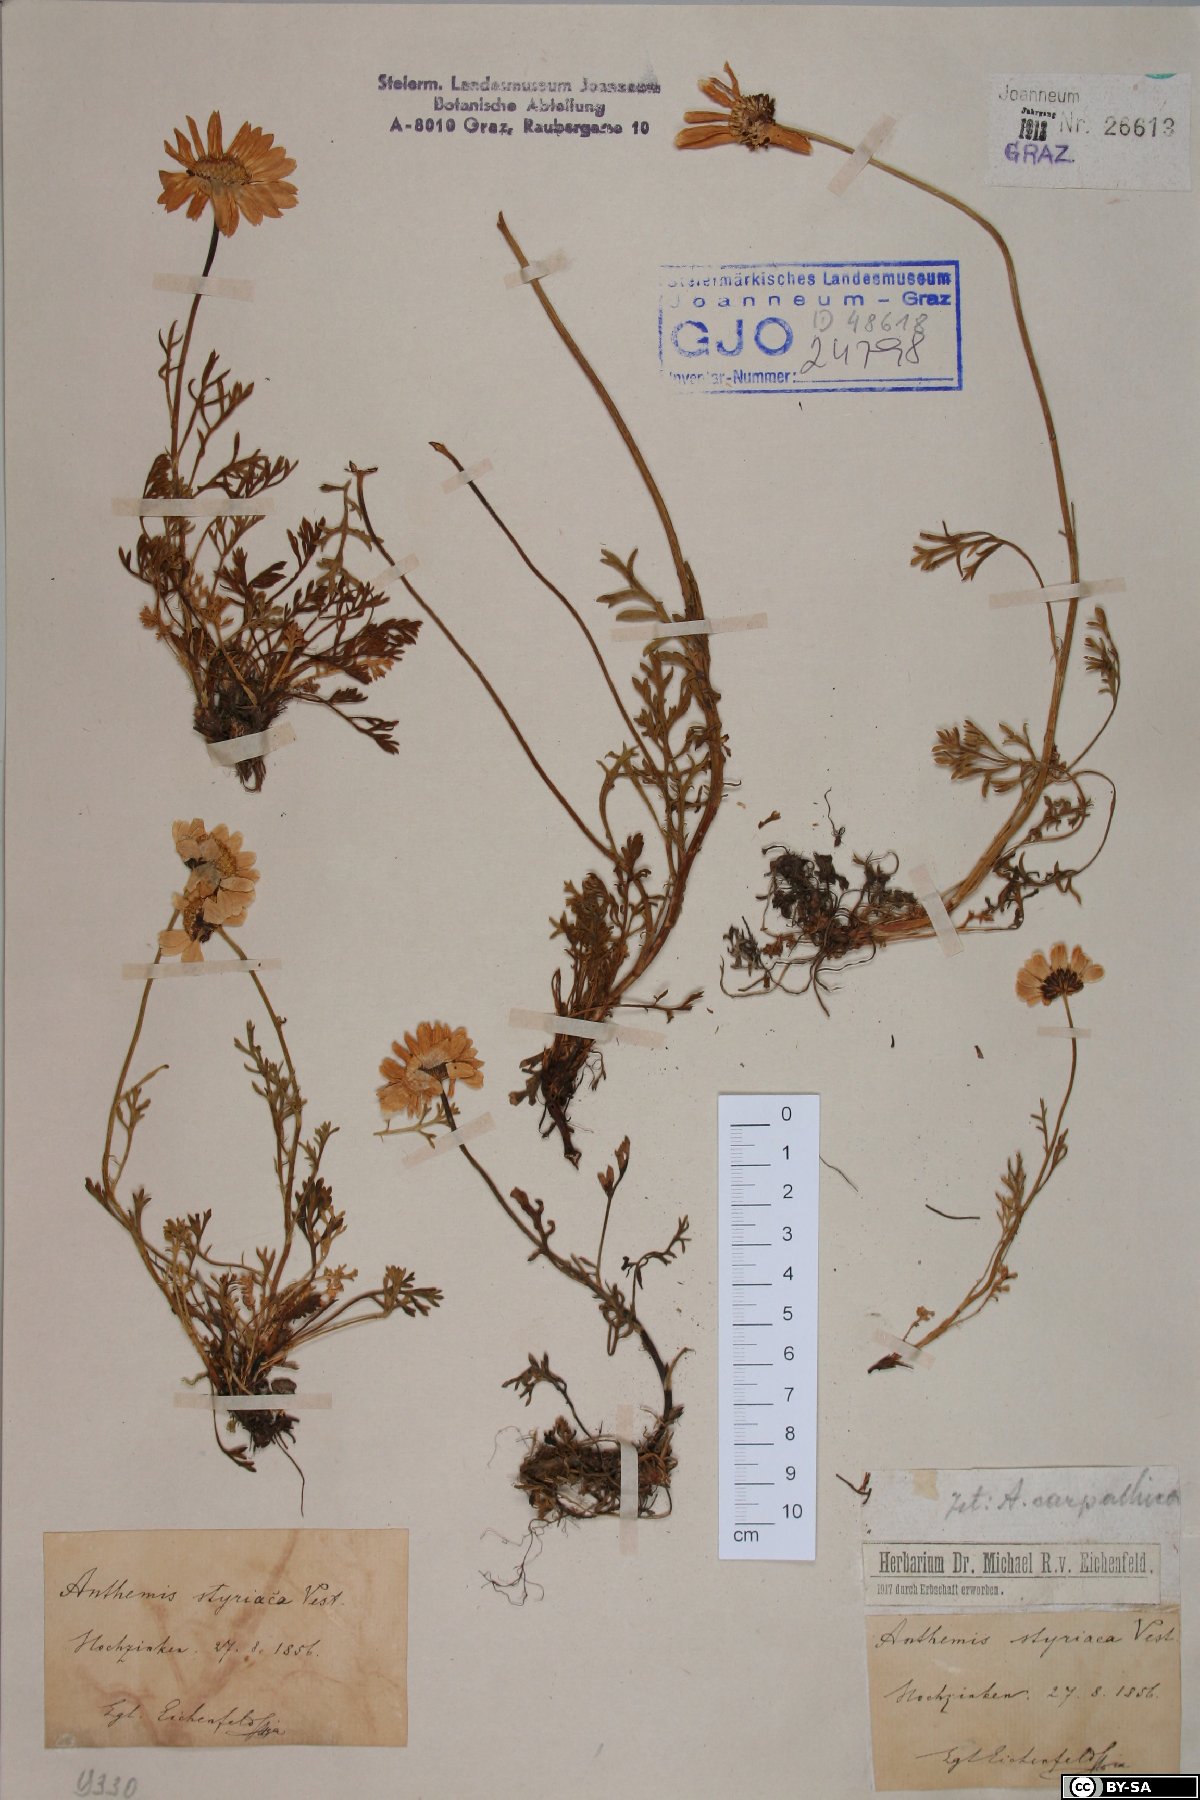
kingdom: Plantae
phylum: Tracheophyta
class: Magnoliopsida
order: Asterales
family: Asteraceae
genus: Anthemis
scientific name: Anthemis cretica
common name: Mountain dog-daisy
